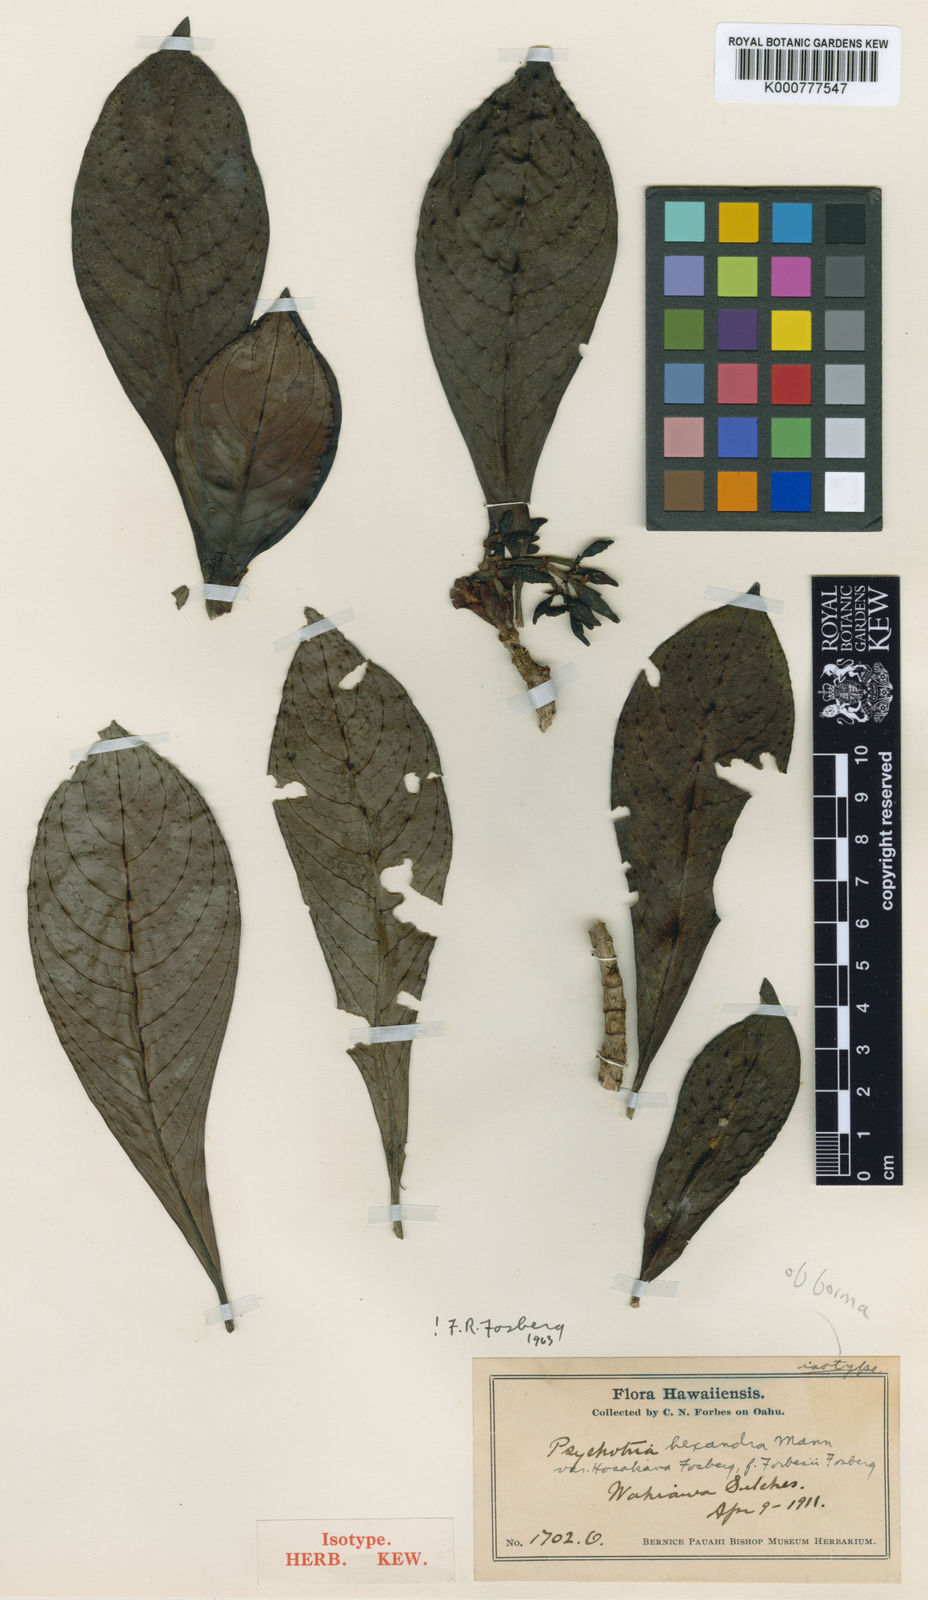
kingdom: Plantae
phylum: Tracheophyta
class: Magnoliopsida
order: Gentianales
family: Rubiaceae
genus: Psychotria
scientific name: Psychotria hexandra
